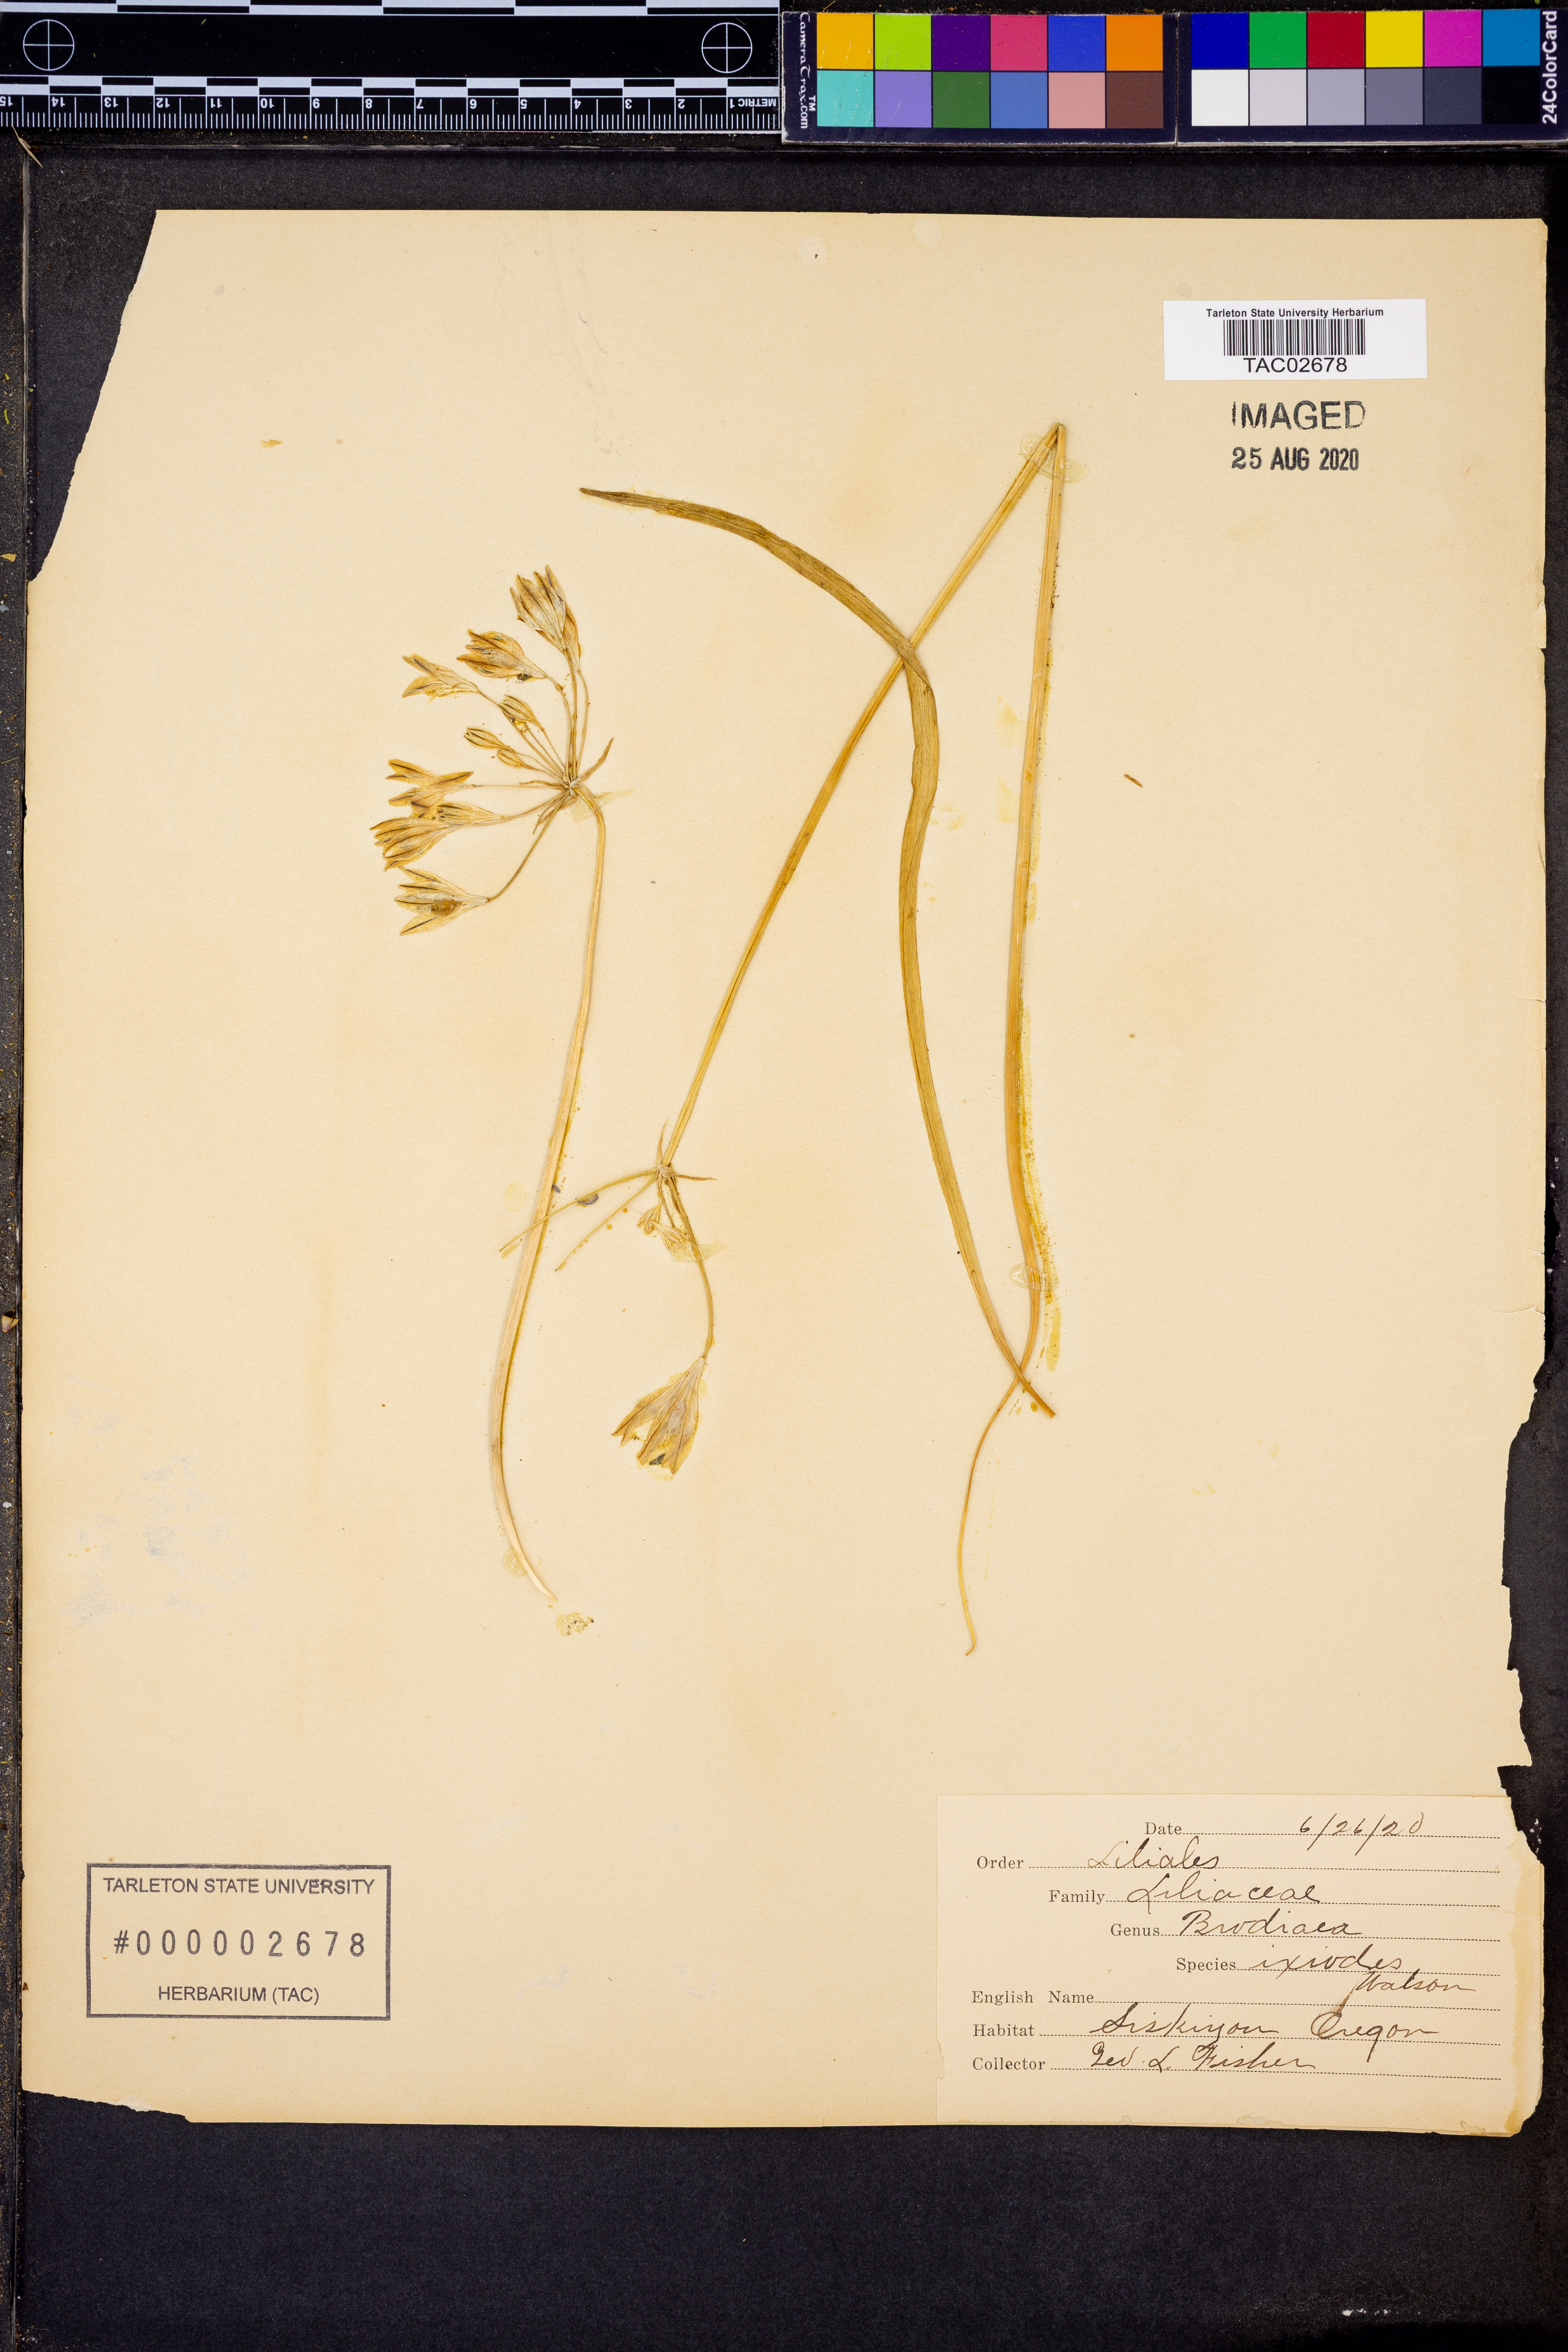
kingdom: Plantae
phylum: Tracheophyta
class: Liliopsida
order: Asparagales
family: Asparagaceae
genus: Triteleia
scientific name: Triteleia ixioides
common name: Yellow-brodiaea
